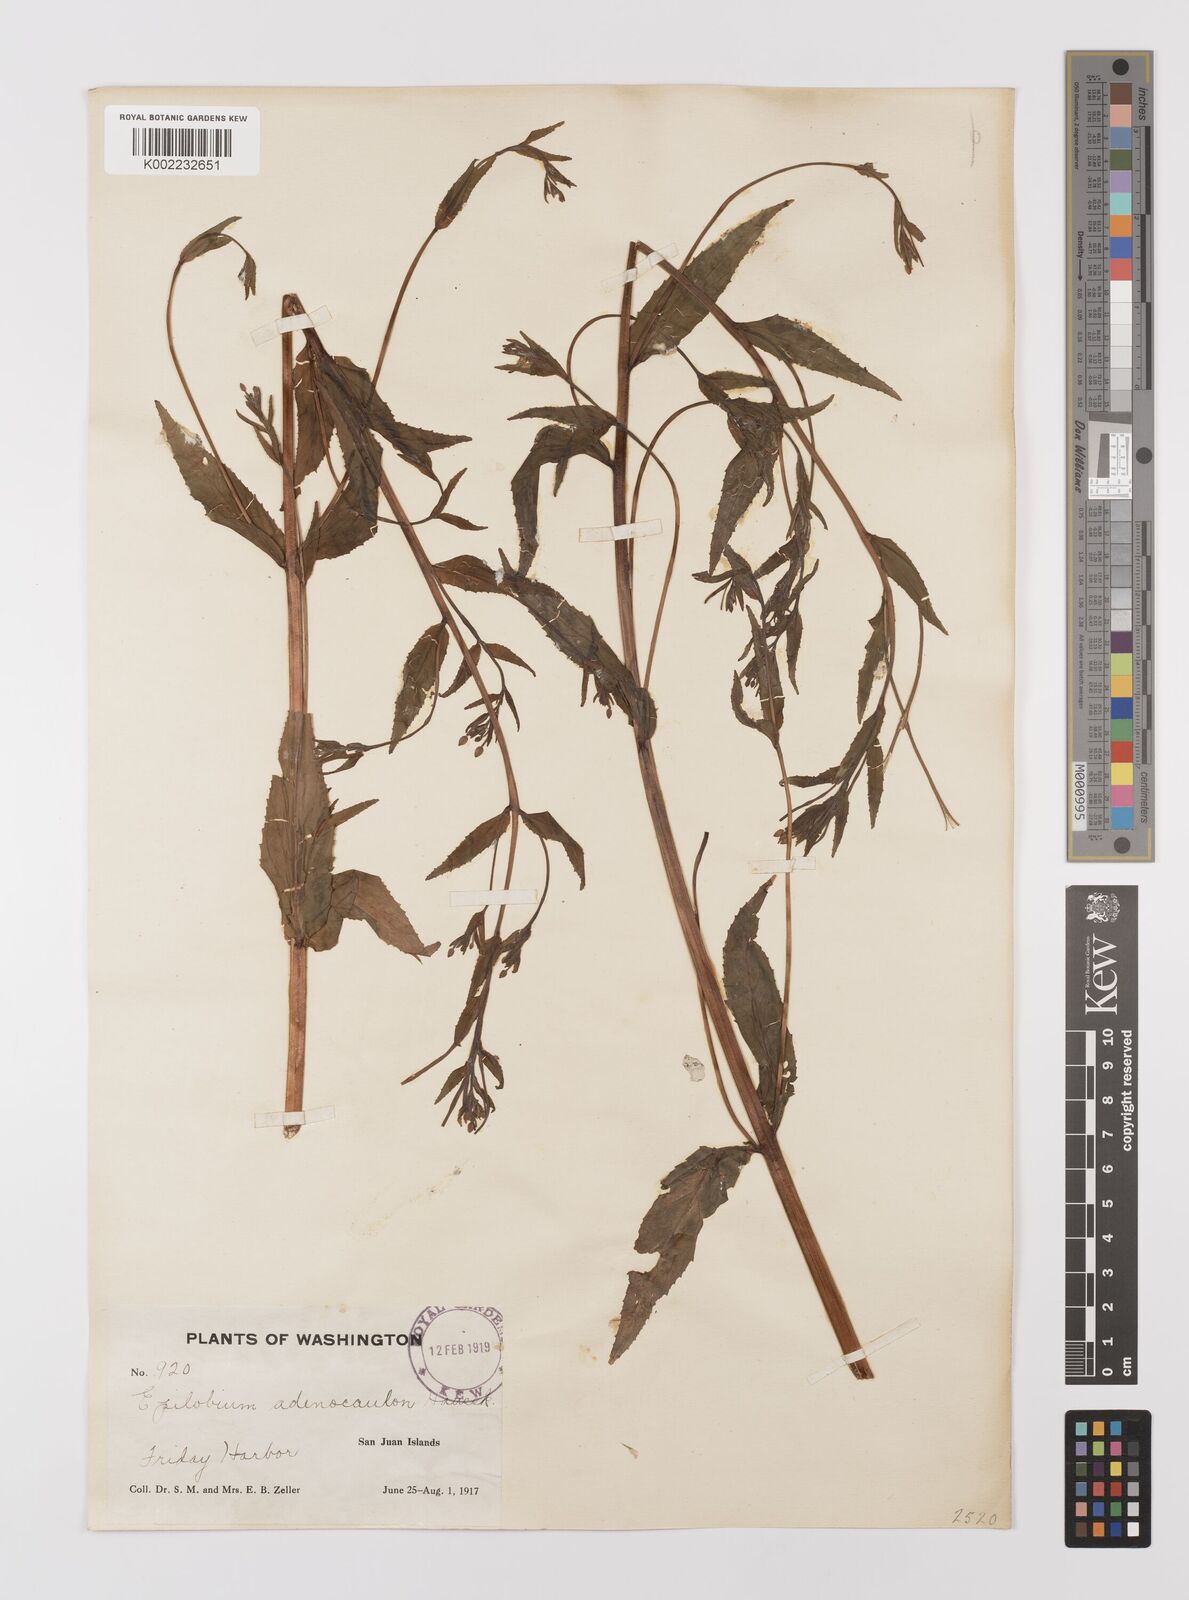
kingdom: Plantae
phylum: Tracheophyta
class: Magnoliopsida
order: Myrtales
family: Onagraceae
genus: Epilobium
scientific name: Epilobium ciliatum
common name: American willowherb
